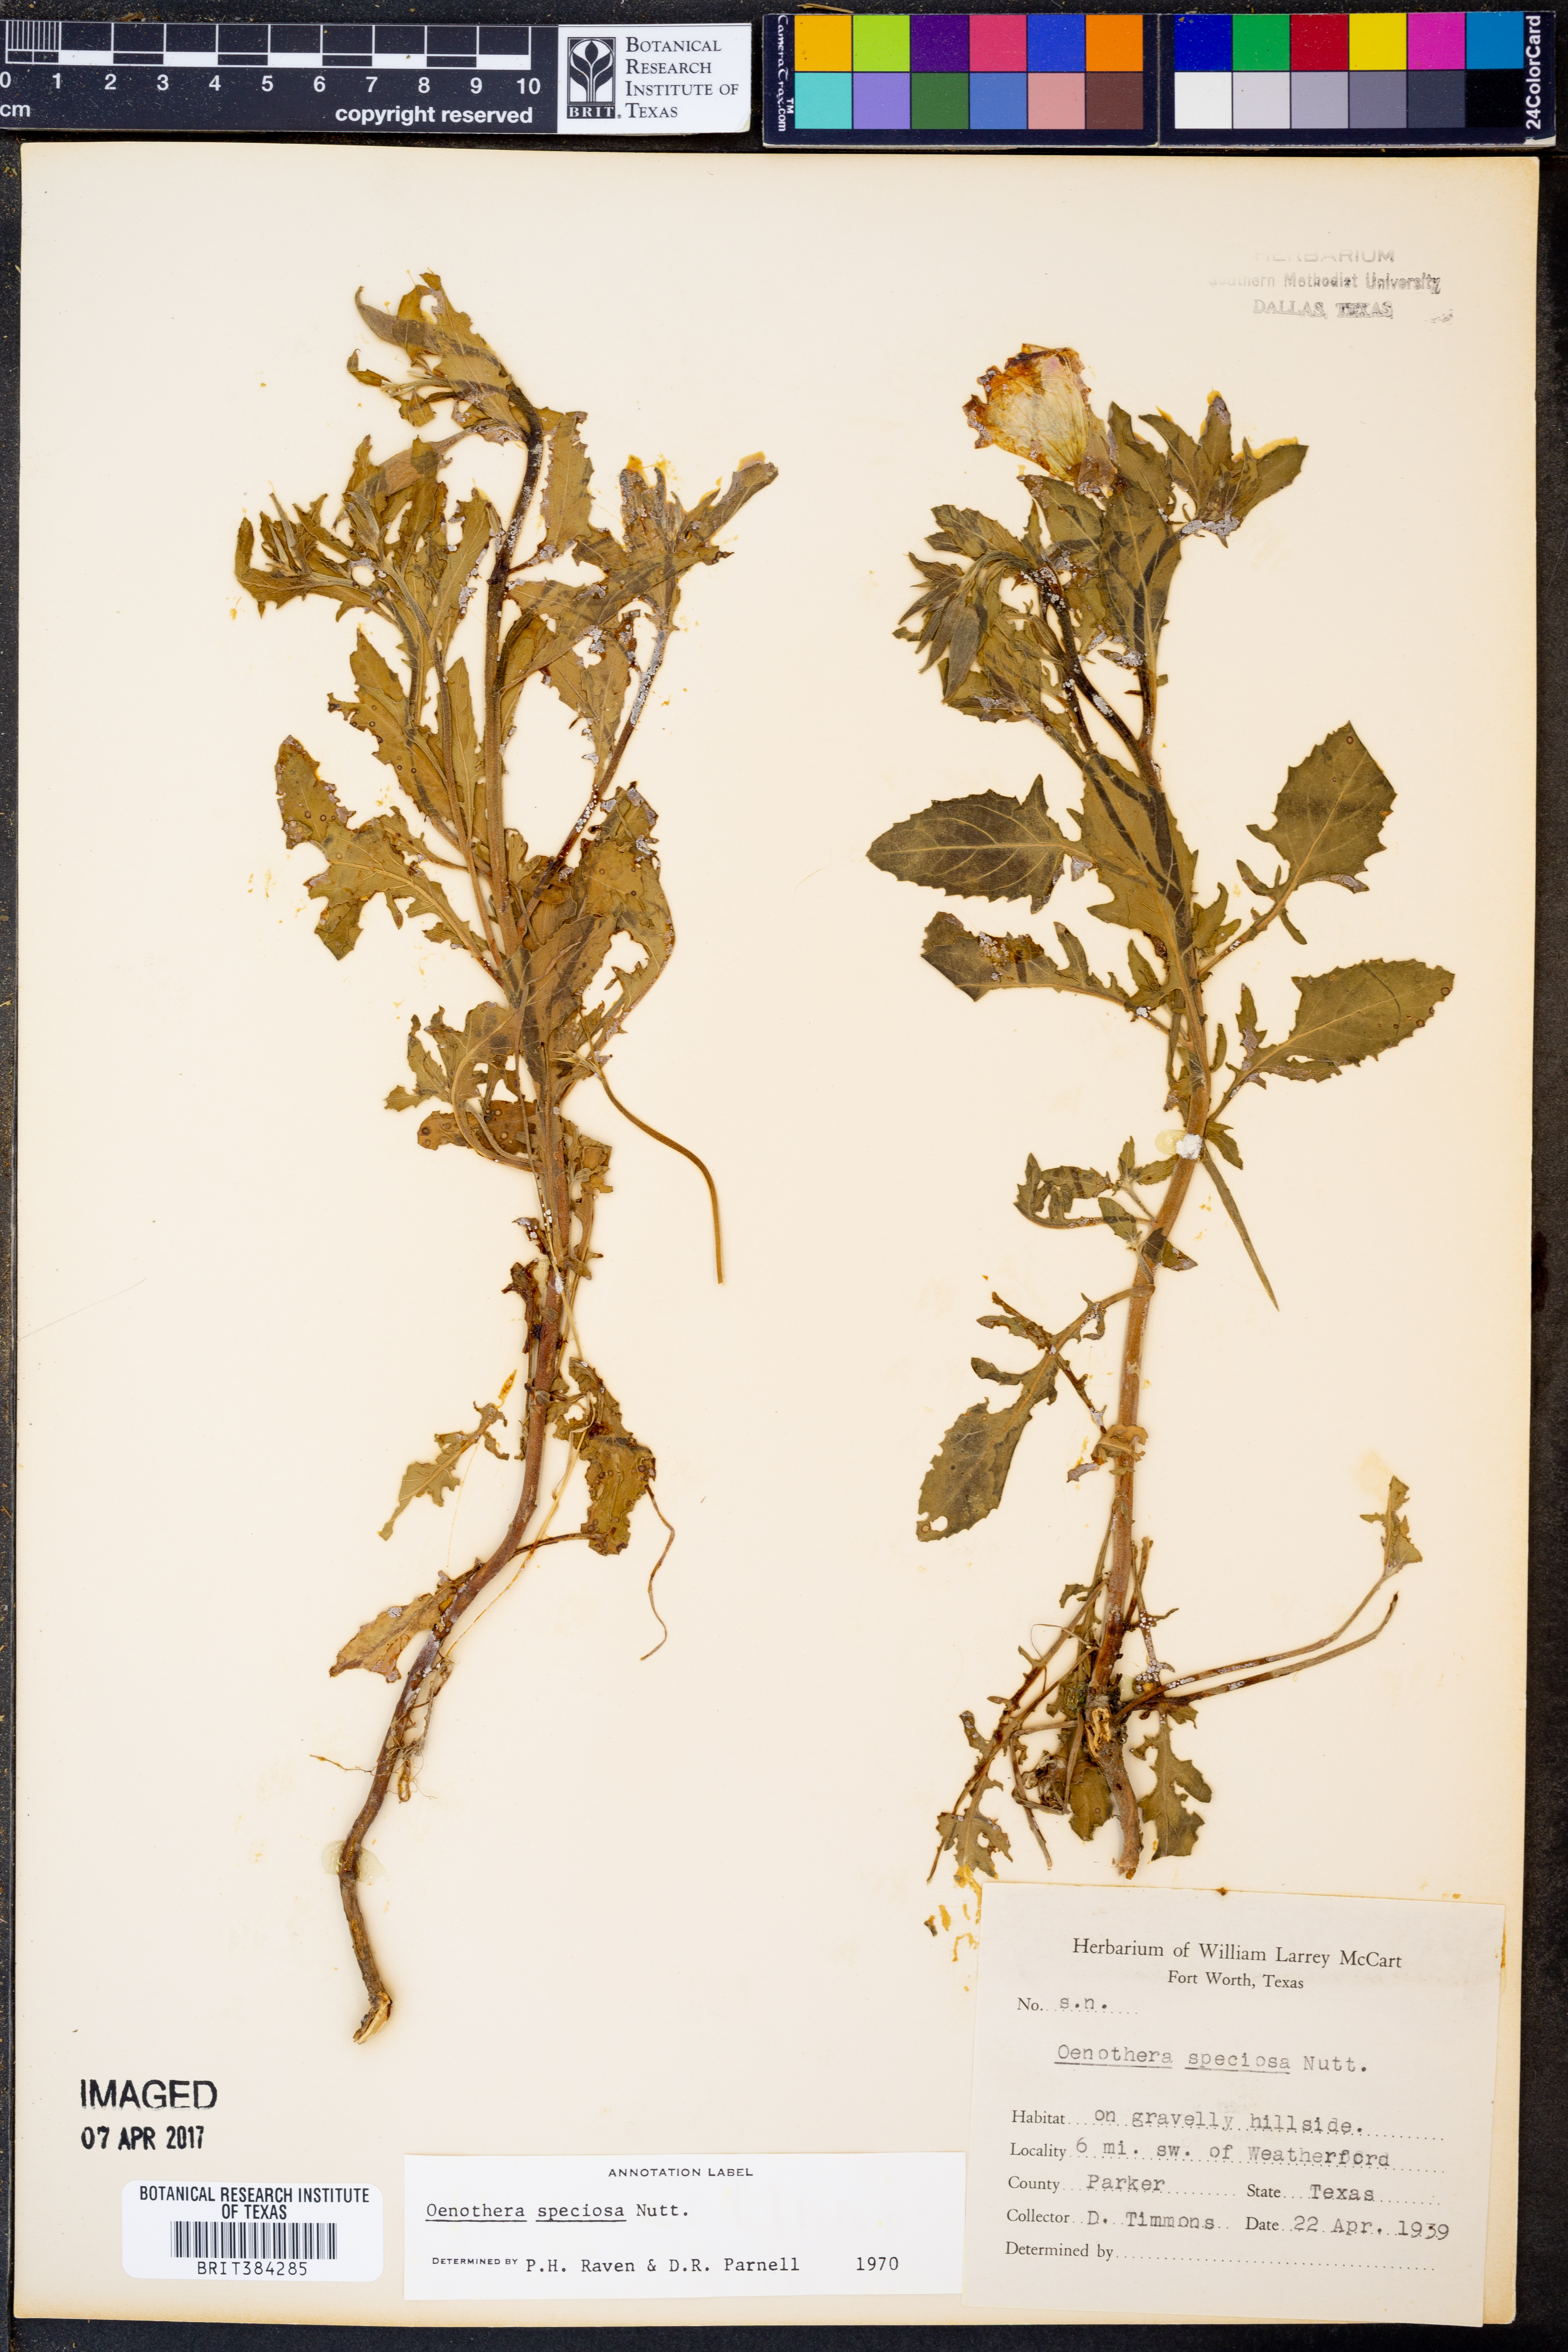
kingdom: Plantae
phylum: Tracheophyta
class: Magnoliopsida
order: Myrtales
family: Onagraceae
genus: Oenothera
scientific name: Oenothera speciosa
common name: White evening-primrose
